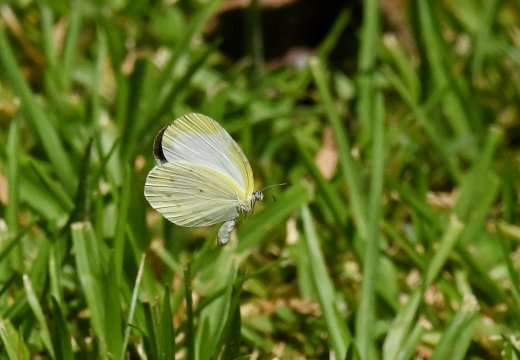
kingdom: Animalia
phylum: Arthropoda
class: Insecta
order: Lepidoptera
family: Pieridae
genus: Eurema
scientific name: Eurema agave
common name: Agave Yellow
